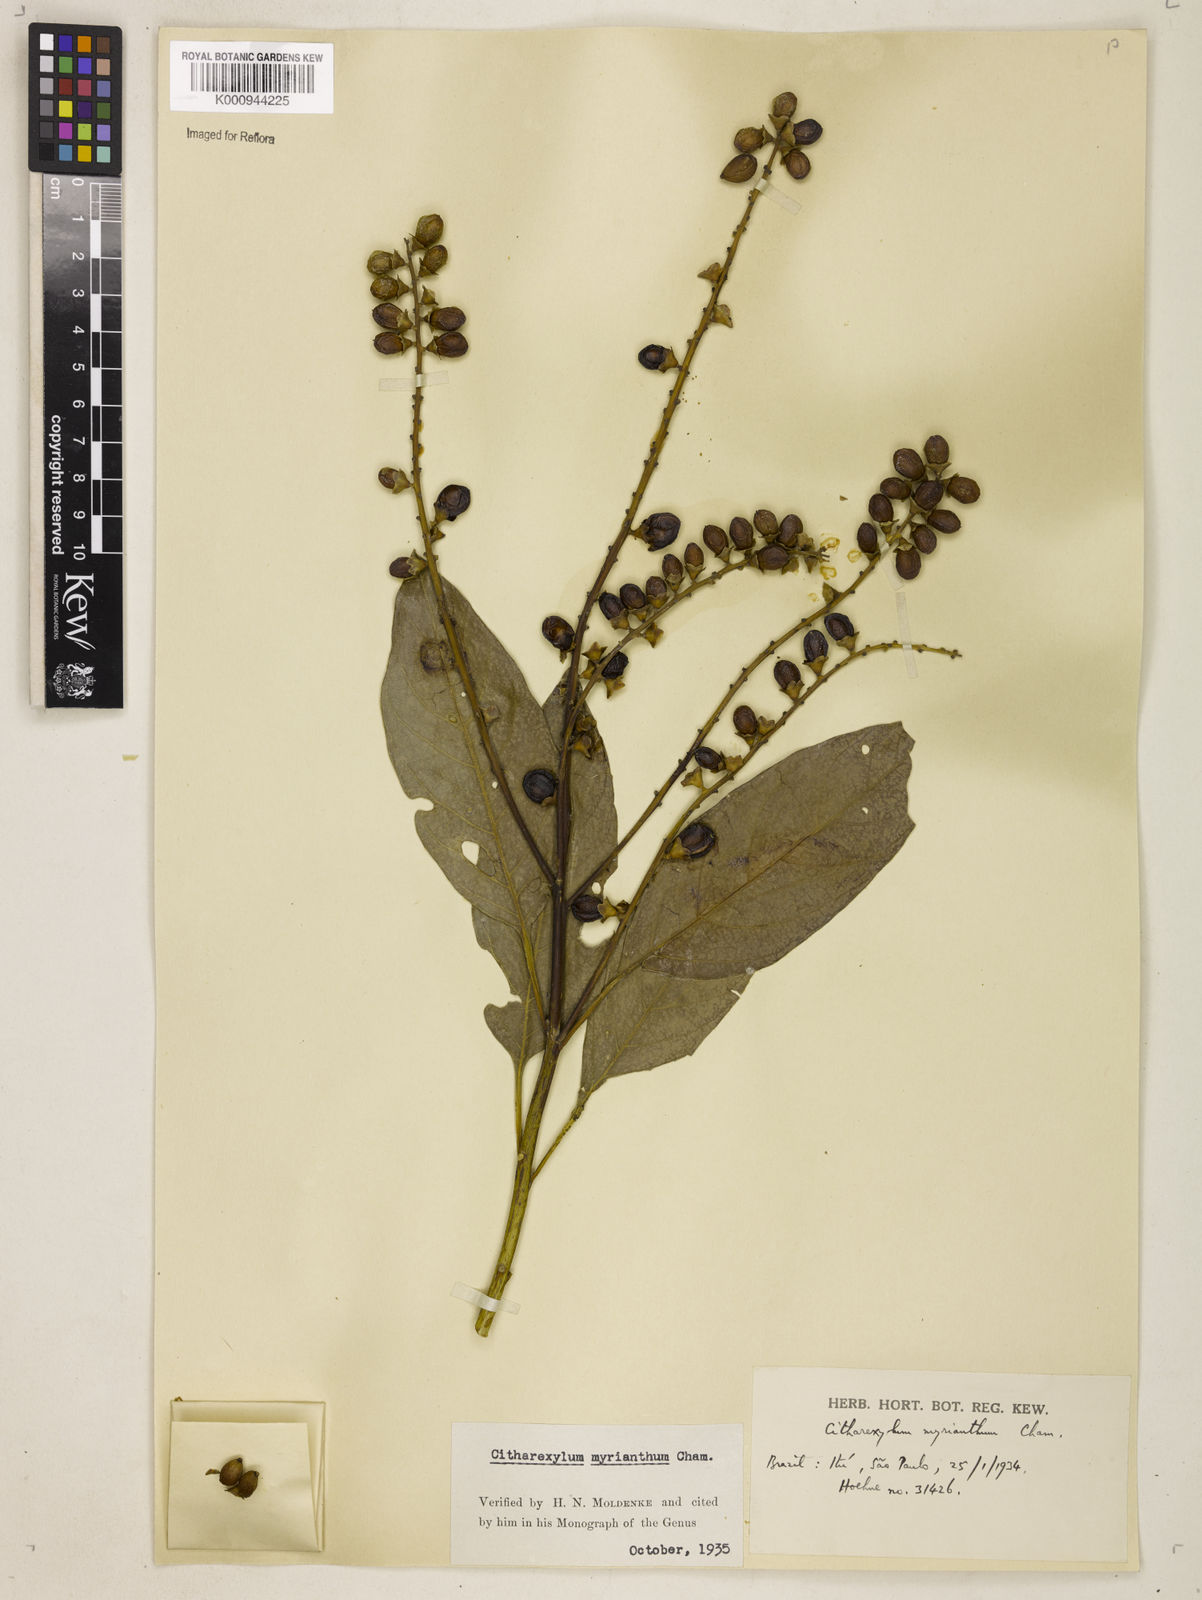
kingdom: Plantae
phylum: Tracheophyta
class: Magnoliopsida
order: Lamiales
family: Verbenaceae
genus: Citharexylum
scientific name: Citharexylum myrianthum
